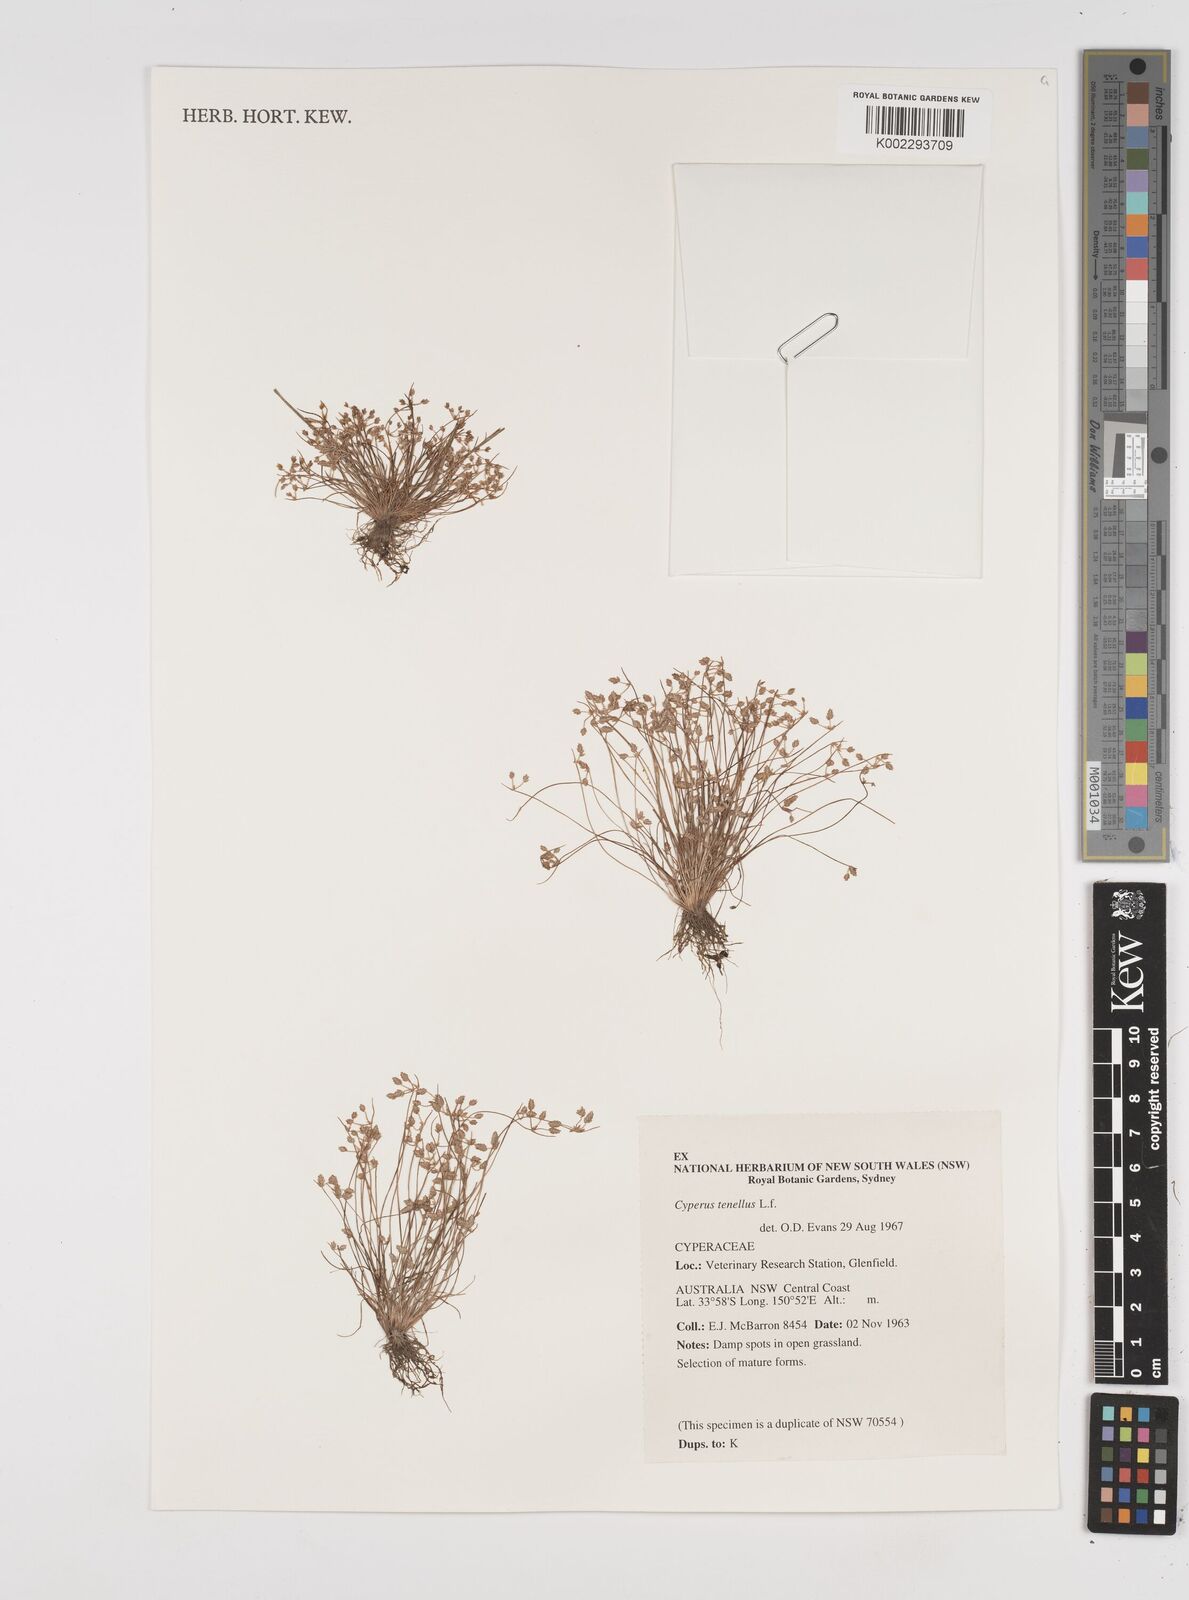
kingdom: Plantae
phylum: Tracheophyta
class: Liliopsida
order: Poales
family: Cyperaceae
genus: Isolepis
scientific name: Isolepis levynsiana
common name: Sedge
